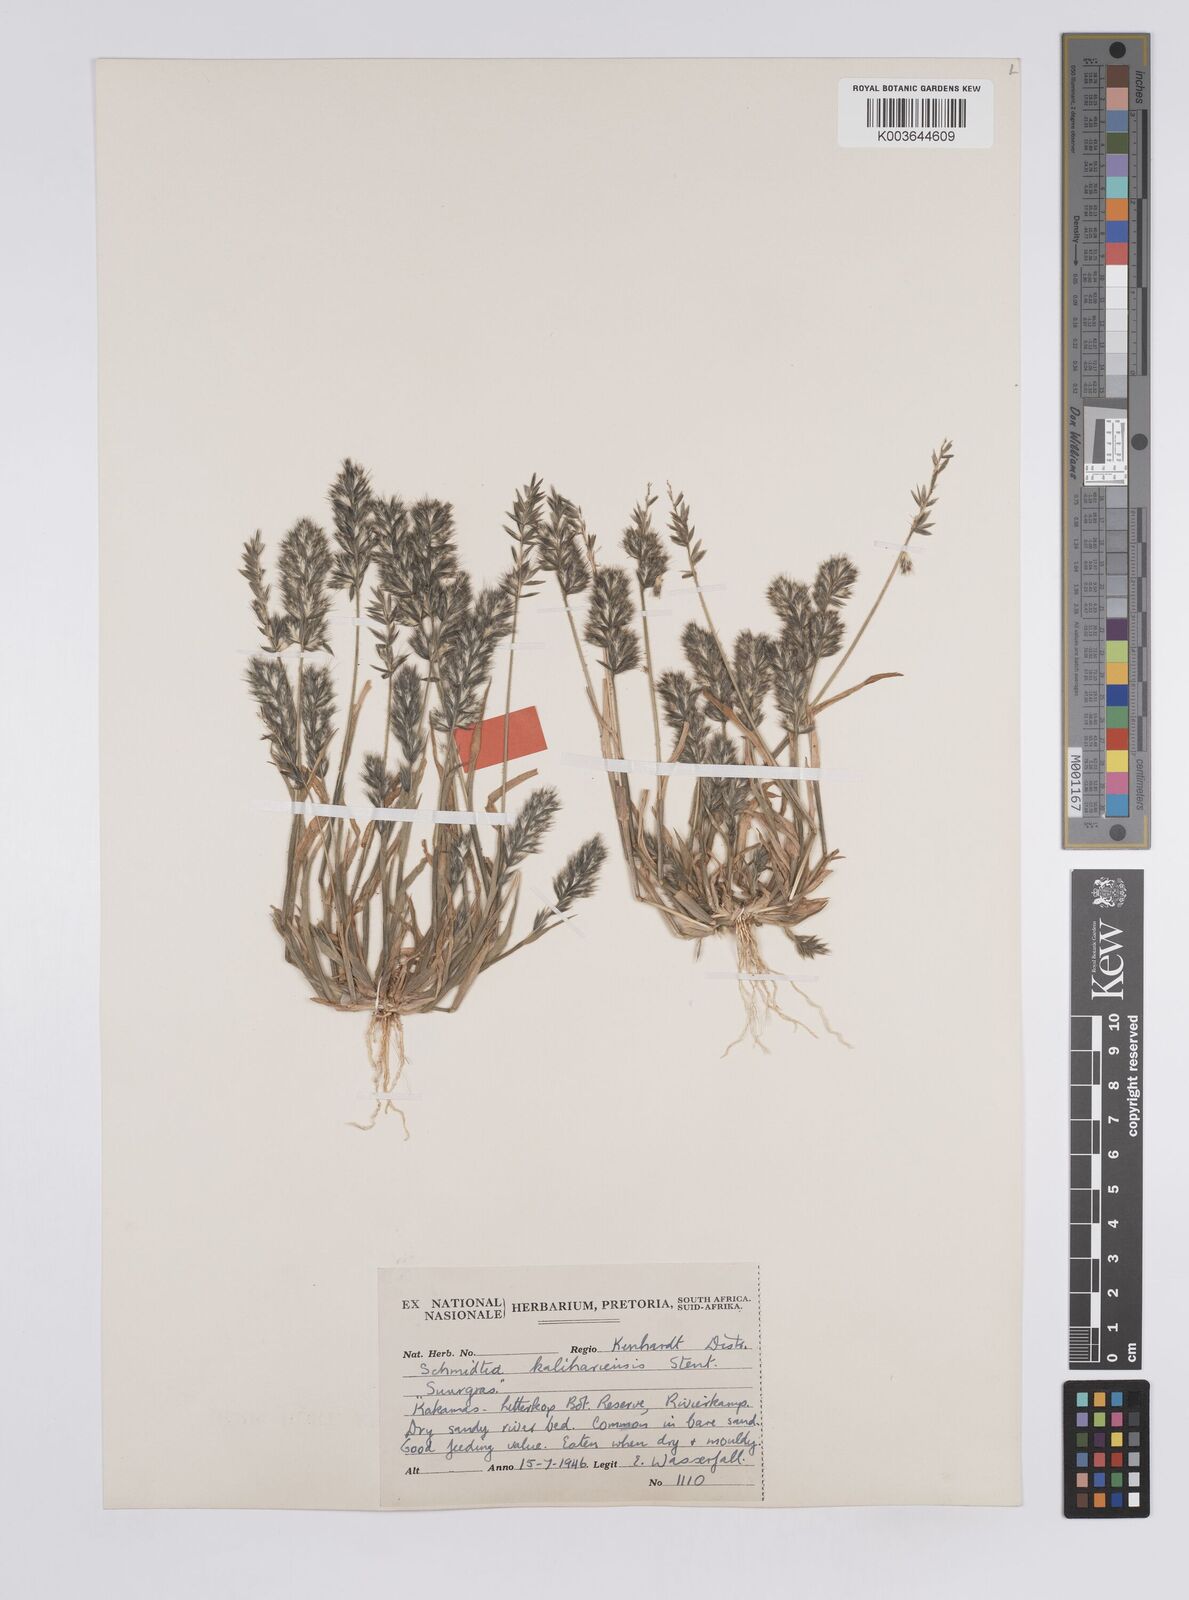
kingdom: Plantae
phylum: Tracheophyta
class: Liliopsida
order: Poales
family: Poaceae
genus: Schmidtia
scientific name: Schmidtia kalahariensis
